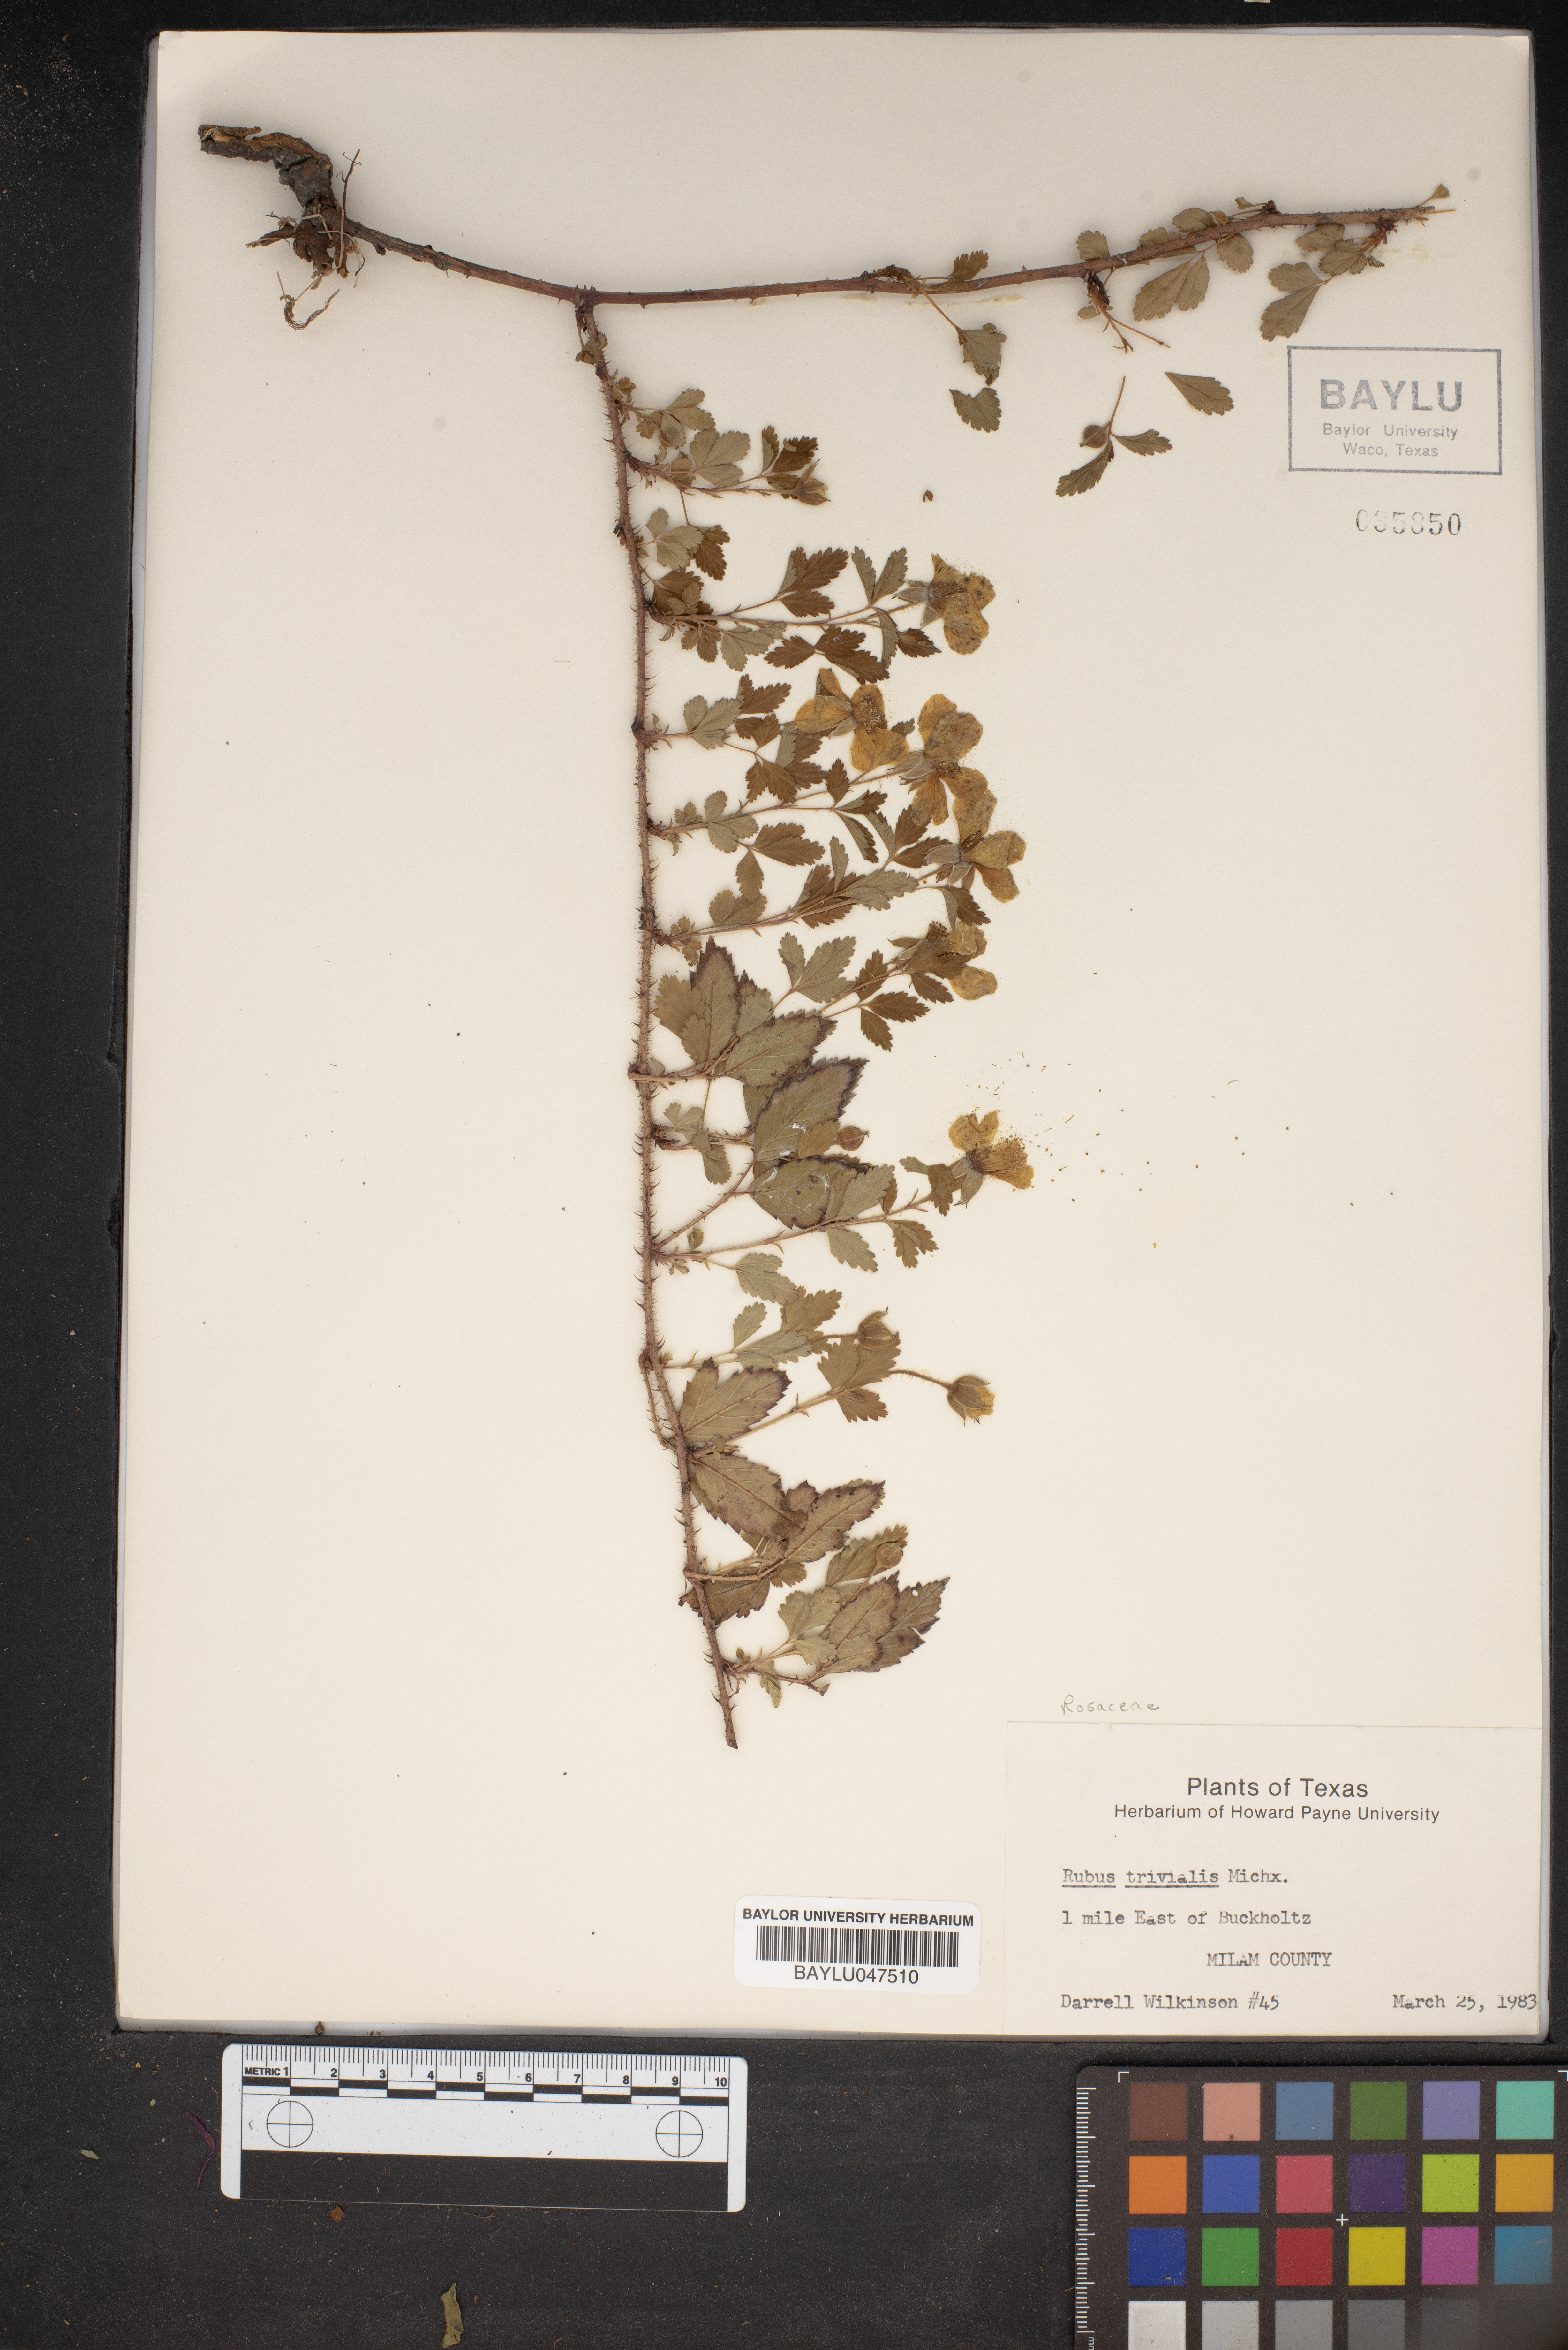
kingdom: Plantae
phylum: Tracheophyta
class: Magnoliopsida
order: Rosales
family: Rosaceae
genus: Rubus
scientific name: Rubus trivialis
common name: Southern dewberry
